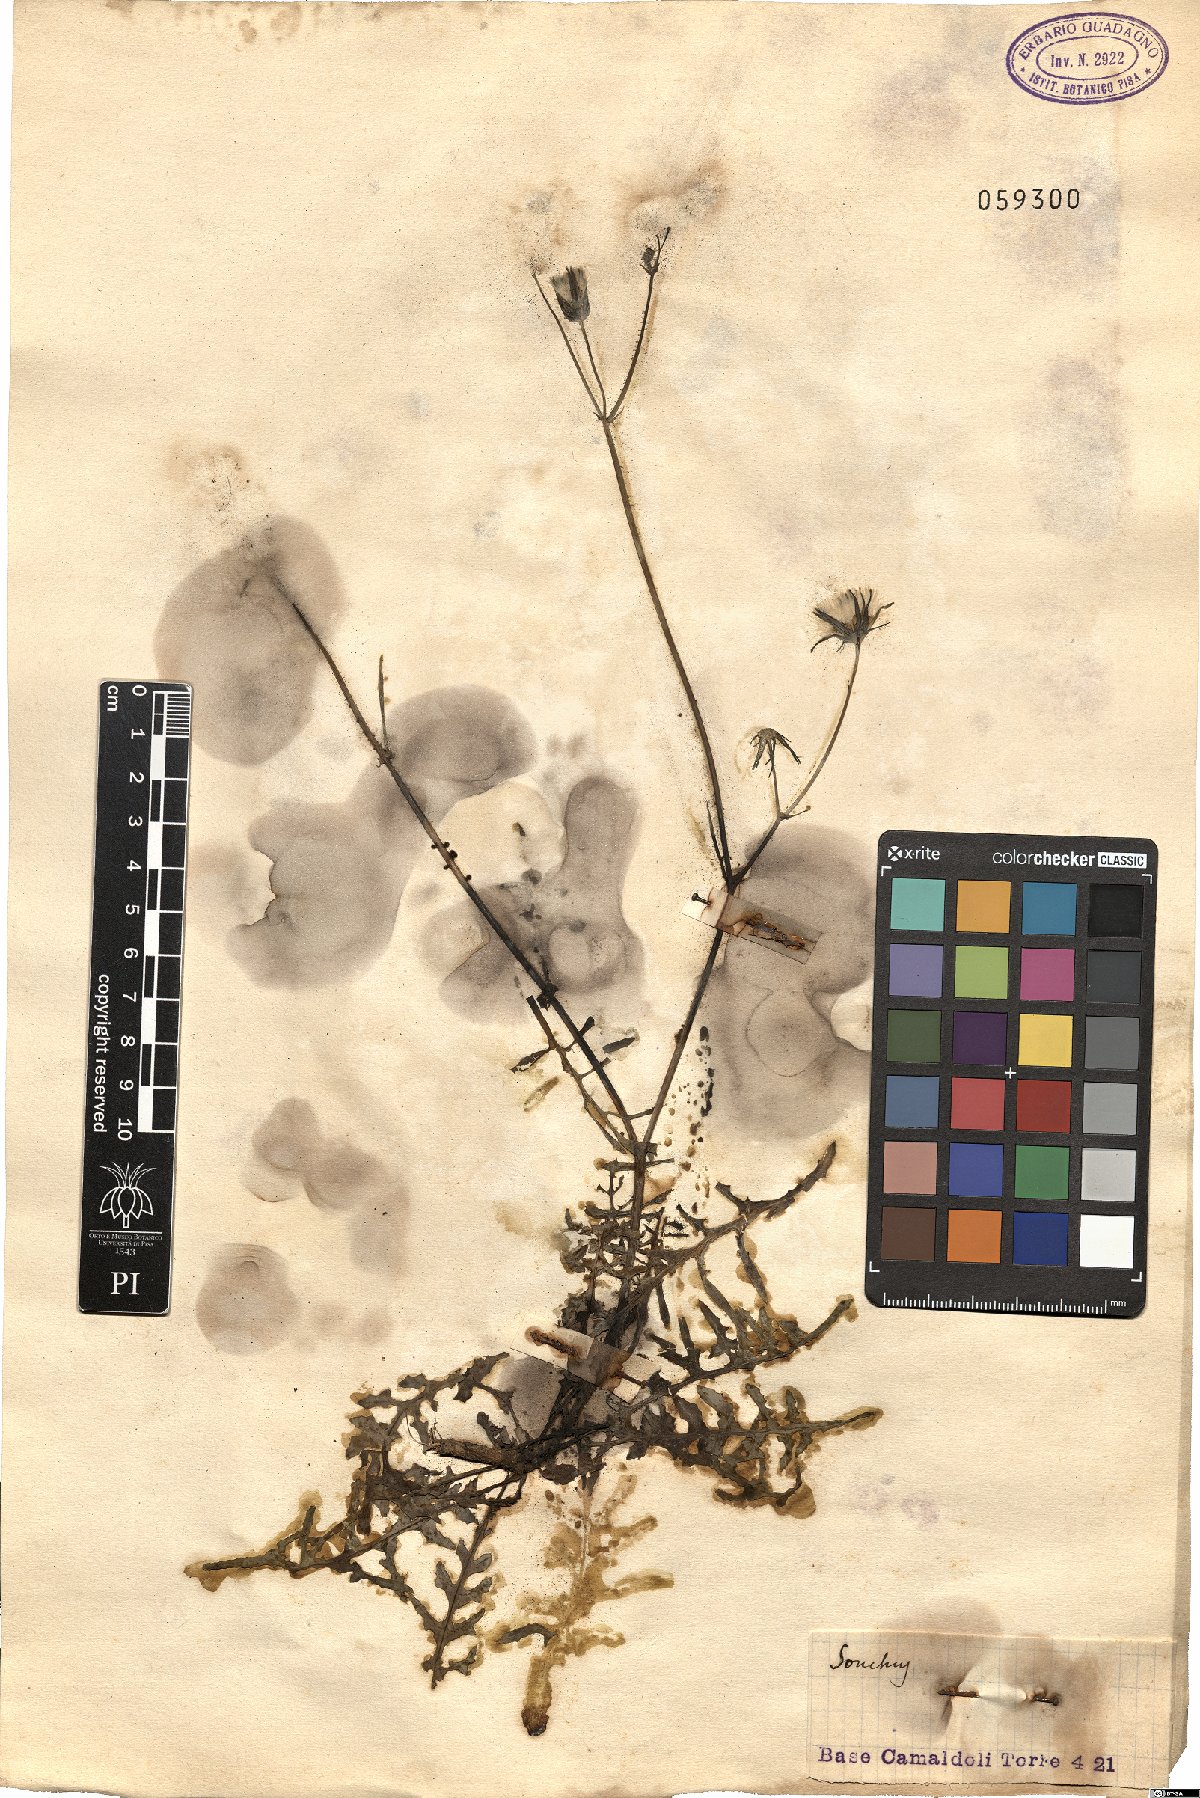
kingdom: Plantae
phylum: Tracheophyta
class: Magnoliopsida
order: Asterales
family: Asteraceae
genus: Sonchus
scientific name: Sonchus
